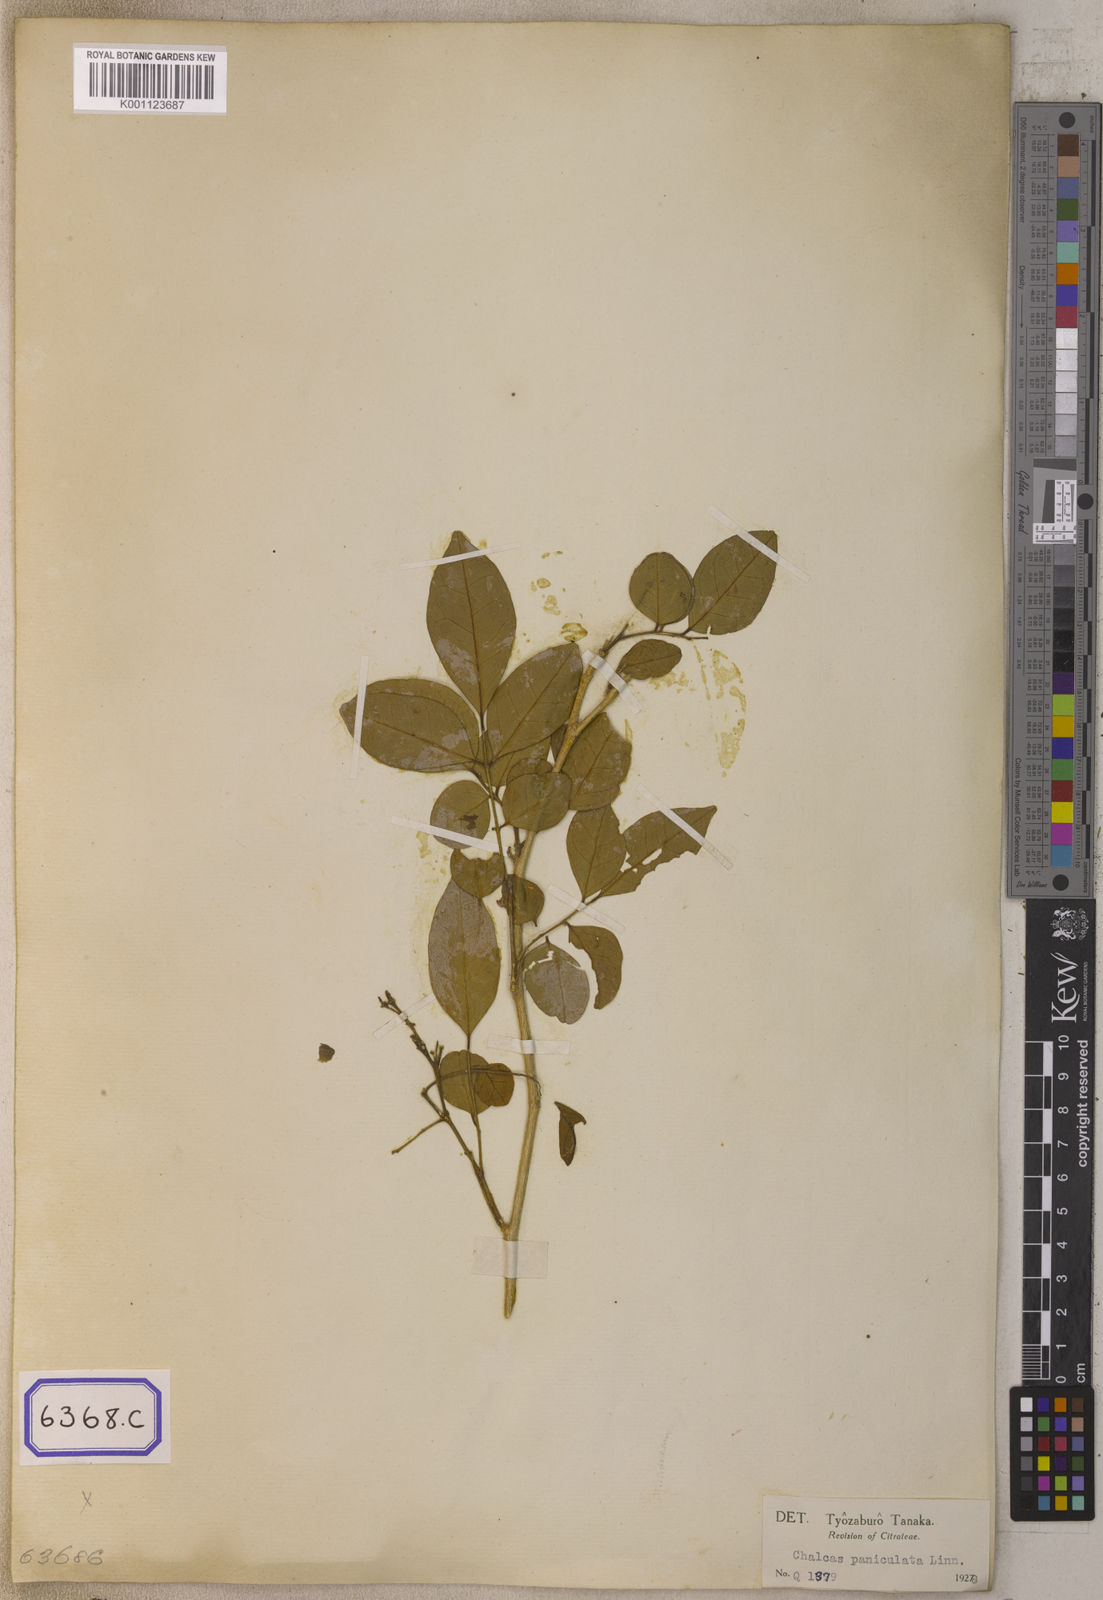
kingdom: Plantae
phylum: Tracheophyta
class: Magnoliopsida
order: Sapindales
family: Rutaceae
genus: Murraya
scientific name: Murraya paniculata
